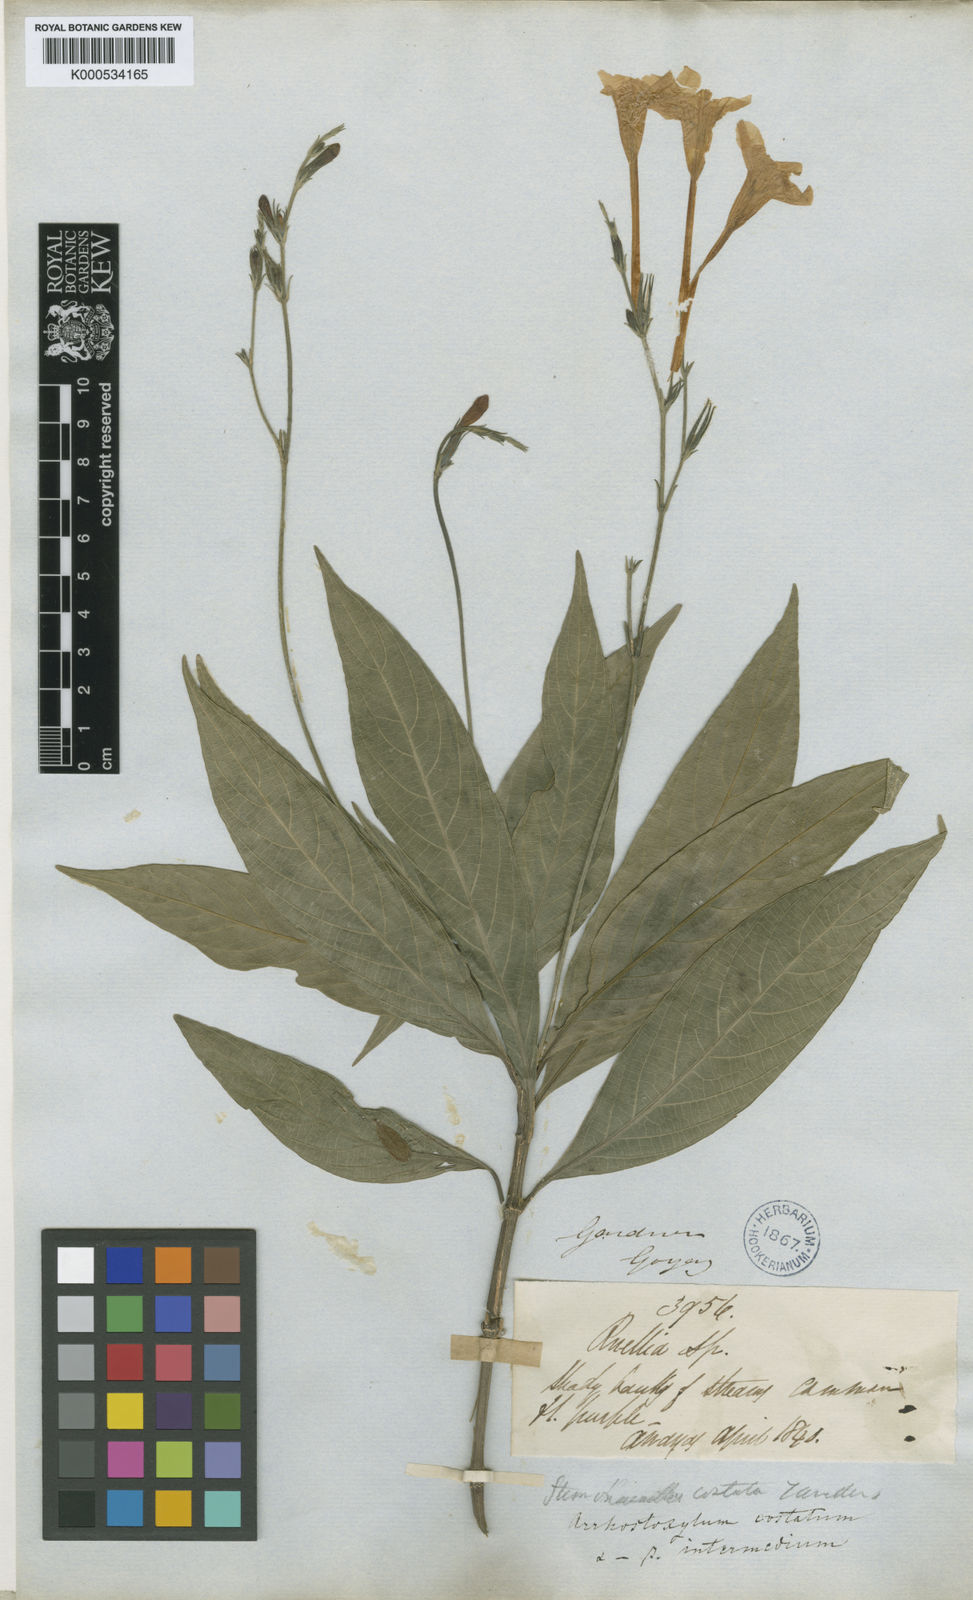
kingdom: Plantae
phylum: Tracheophyta
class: Magnoliopsida
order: Lamiales
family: Acanthaceae
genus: Ruellia
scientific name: Ruellia costata
